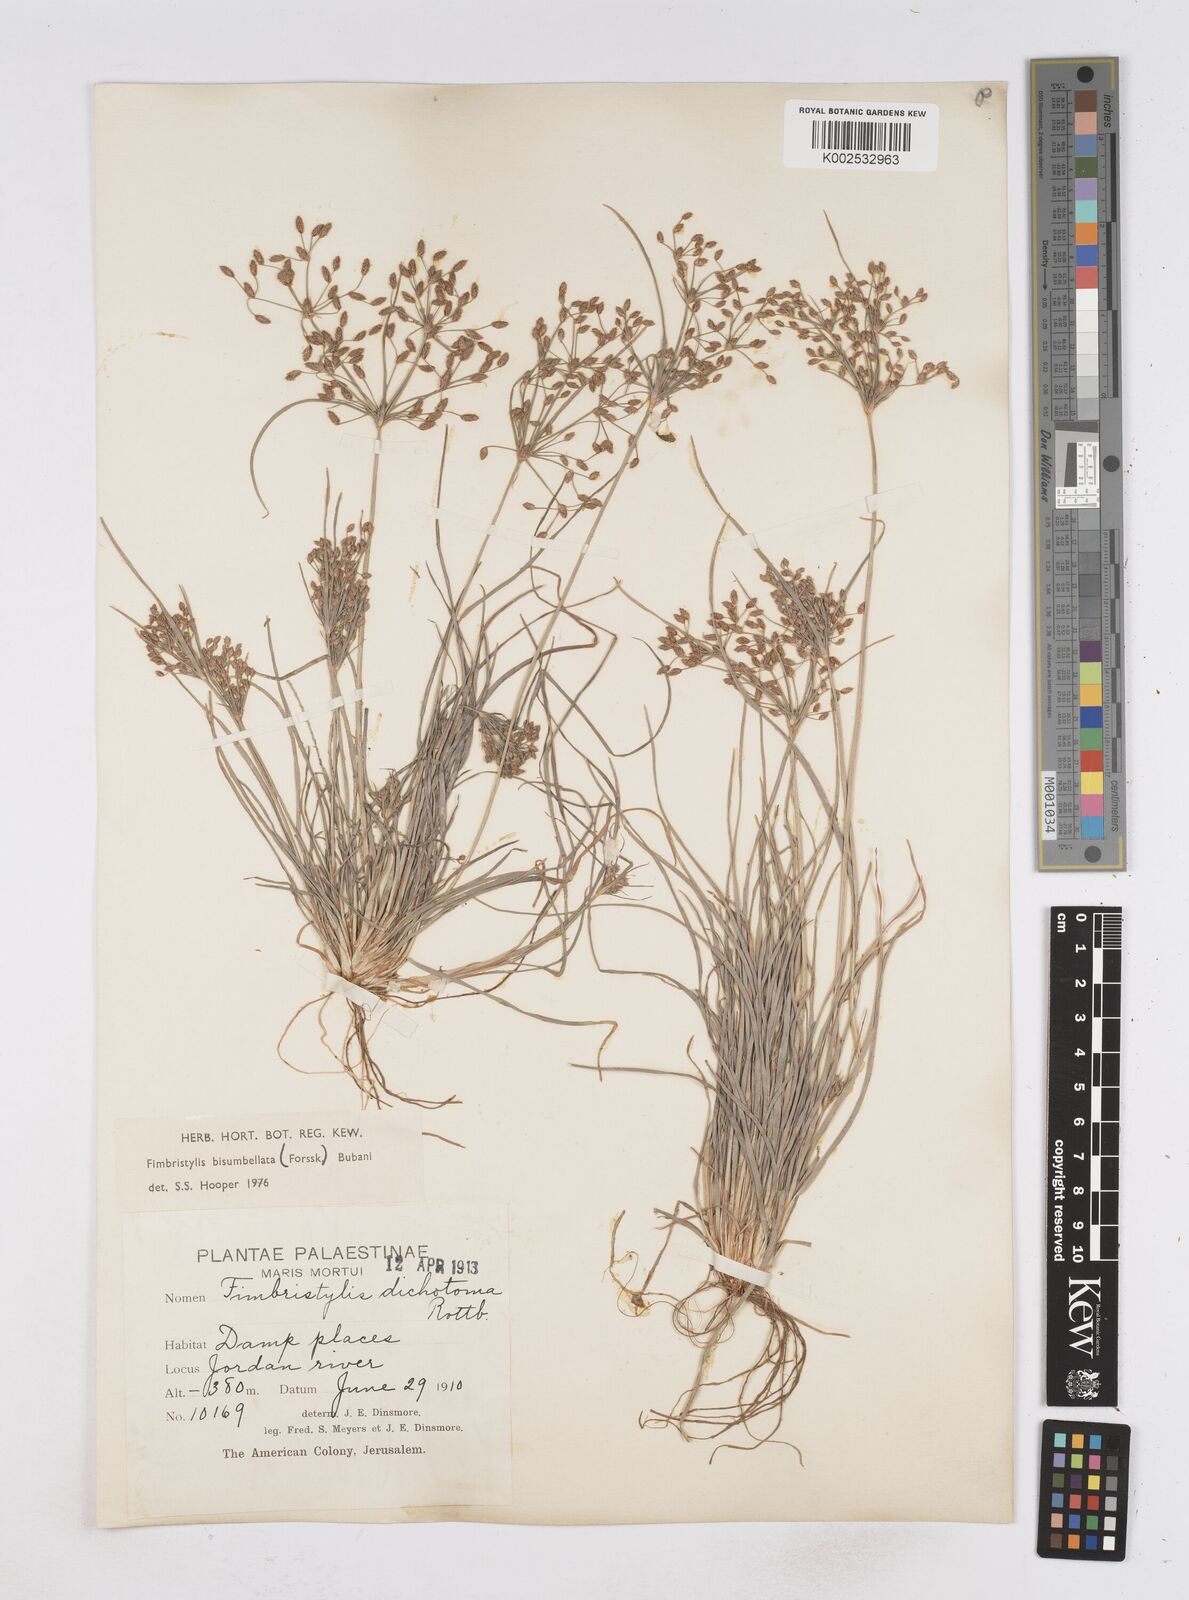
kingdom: Plantae
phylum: Tracheophyta
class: Liliopsida
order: Poales
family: Cyperaceae
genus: Fimbristylis
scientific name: Fimbristylis bisumbellata
